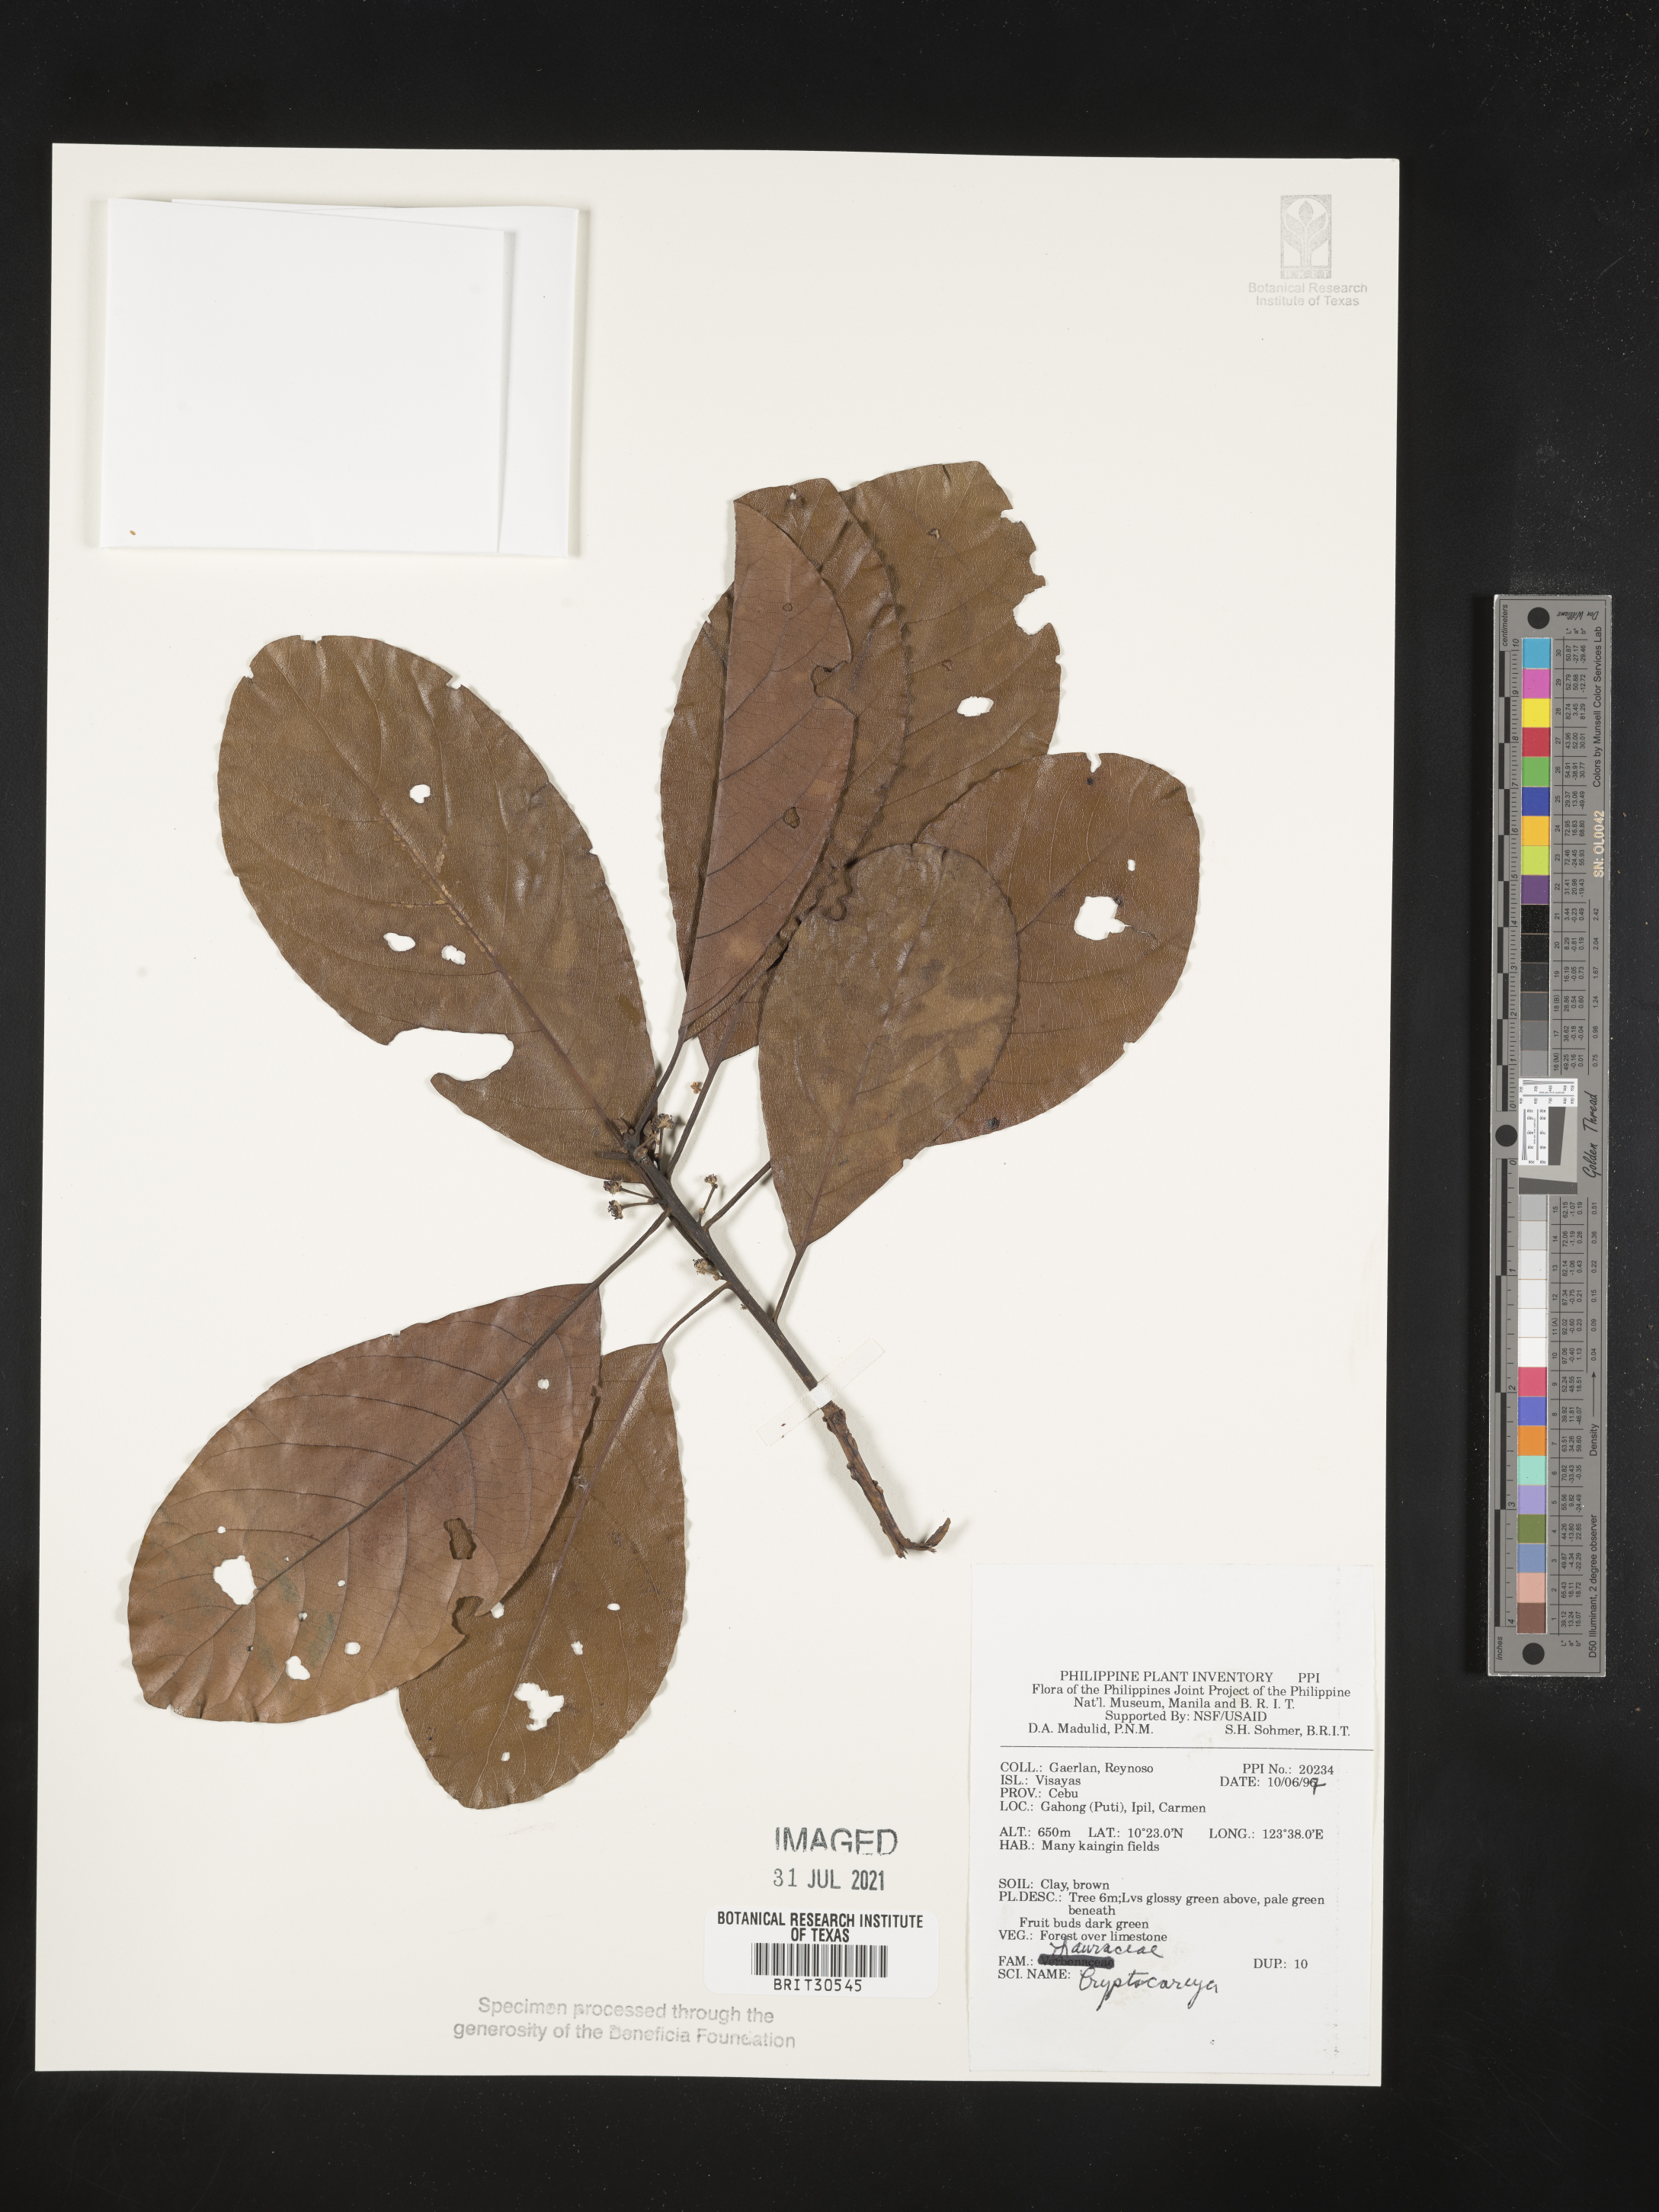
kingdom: Plantae
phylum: Tracheophyta
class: Magnoliopsida
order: Laurales
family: Lauraceae
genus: Cryptocarya
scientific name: Cryptocarya
